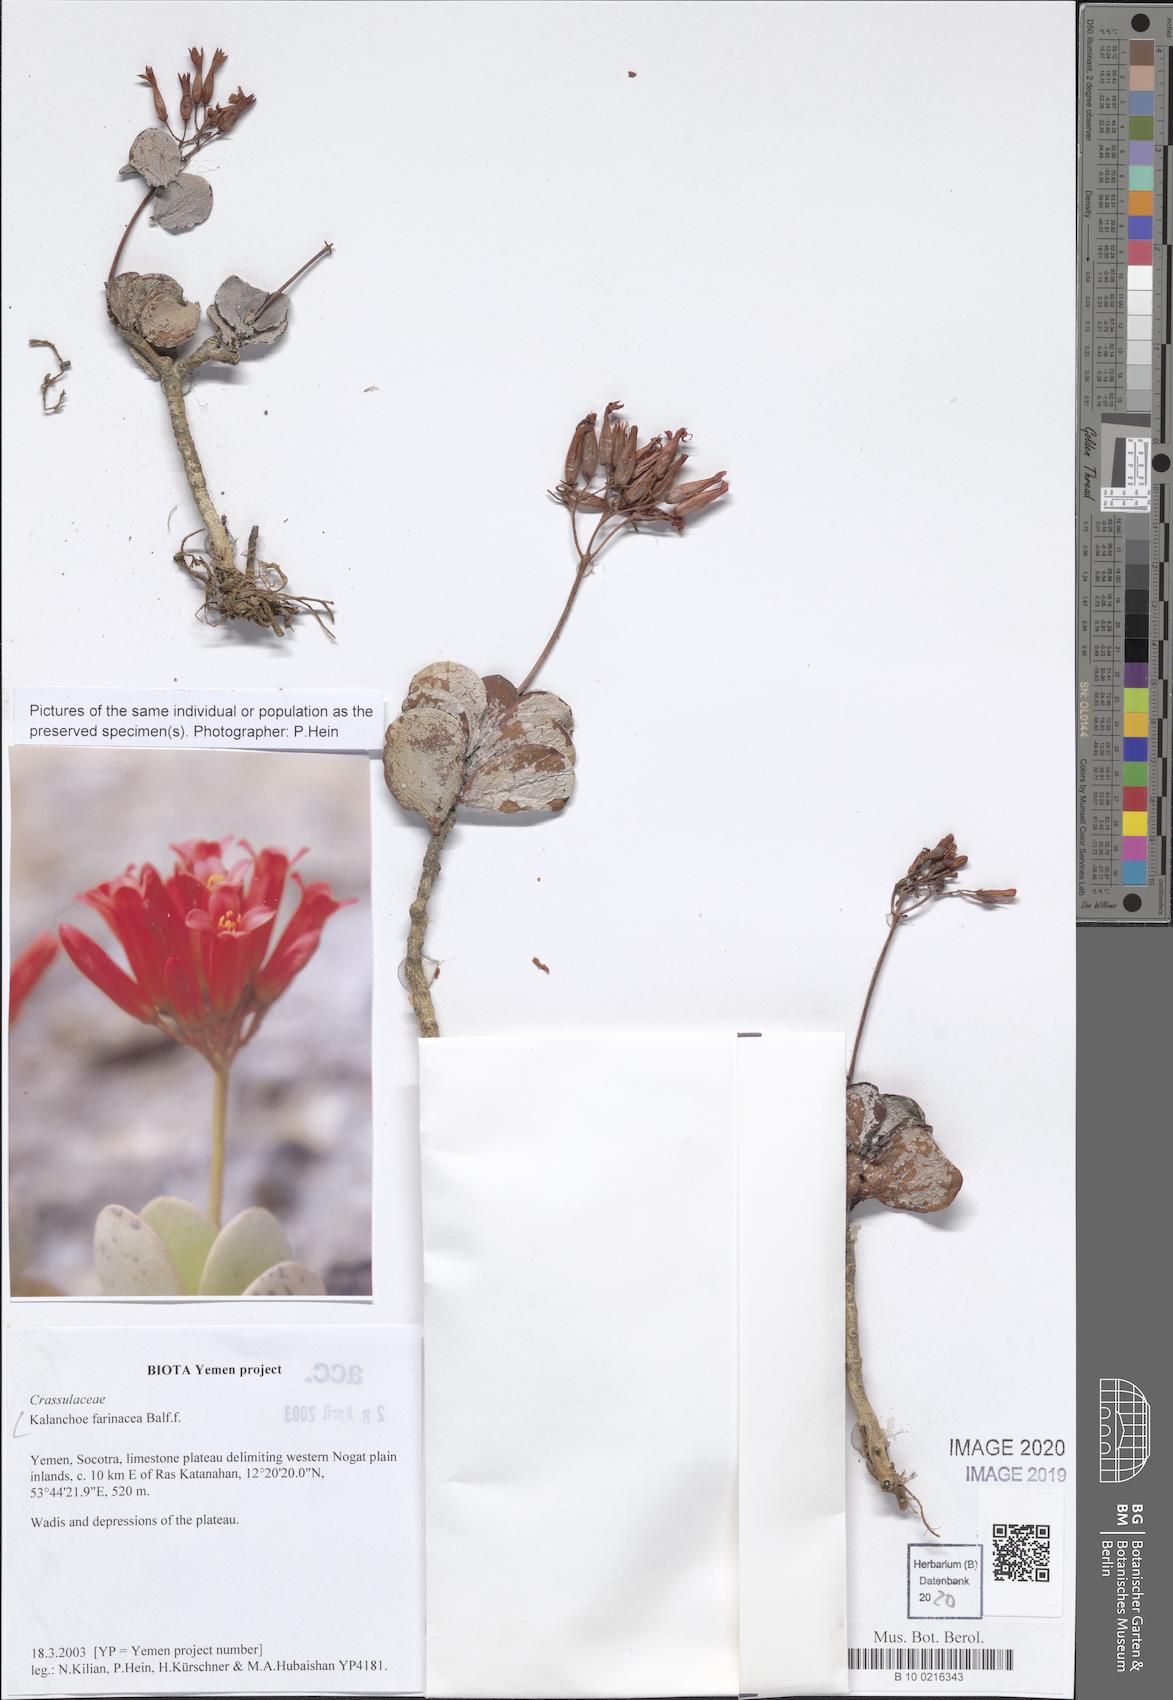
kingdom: Plantae
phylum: Tracheophyta
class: Magnoliopsida
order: Saxifragales
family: Crassulaceae
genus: Kalanchoe
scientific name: Kalanchoe farinacea
